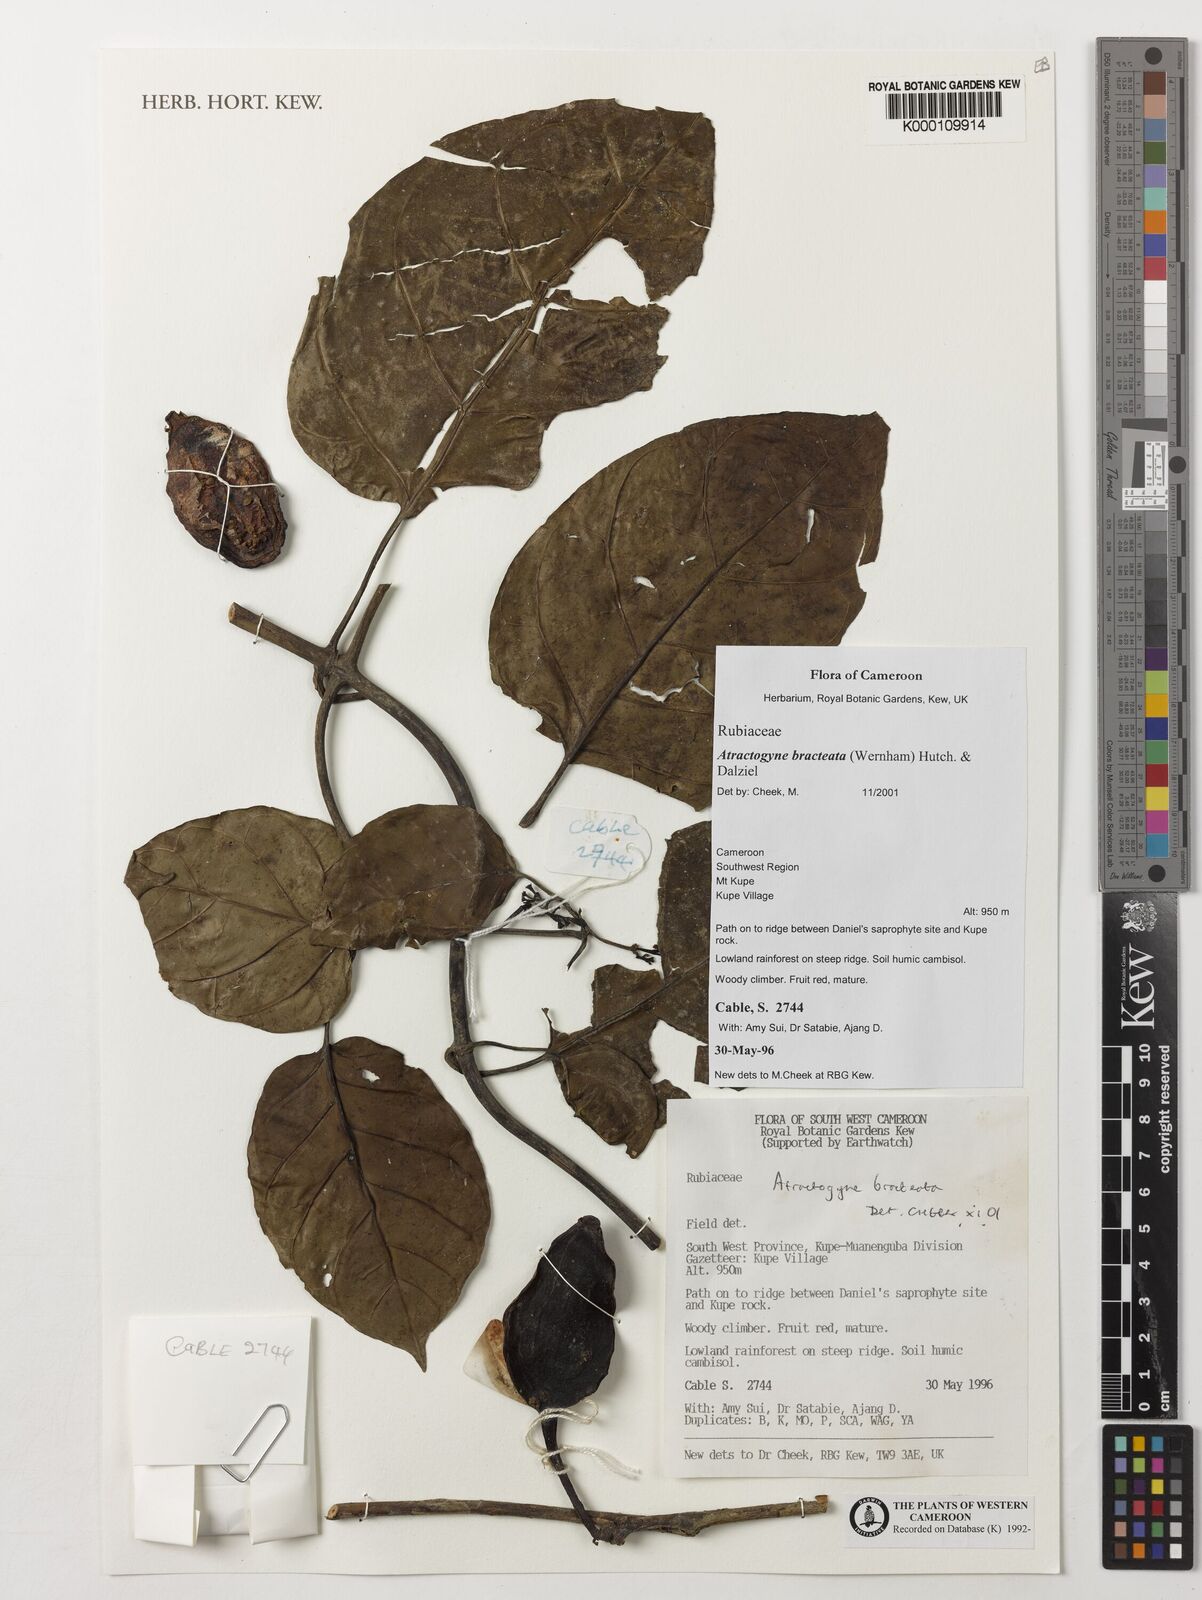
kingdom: Plantae
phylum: Tracheophyta
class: Magnoliopsida
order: Gentianales
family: Rubiaceae
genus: Atractogyne
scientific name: Atractogyne bracteata
